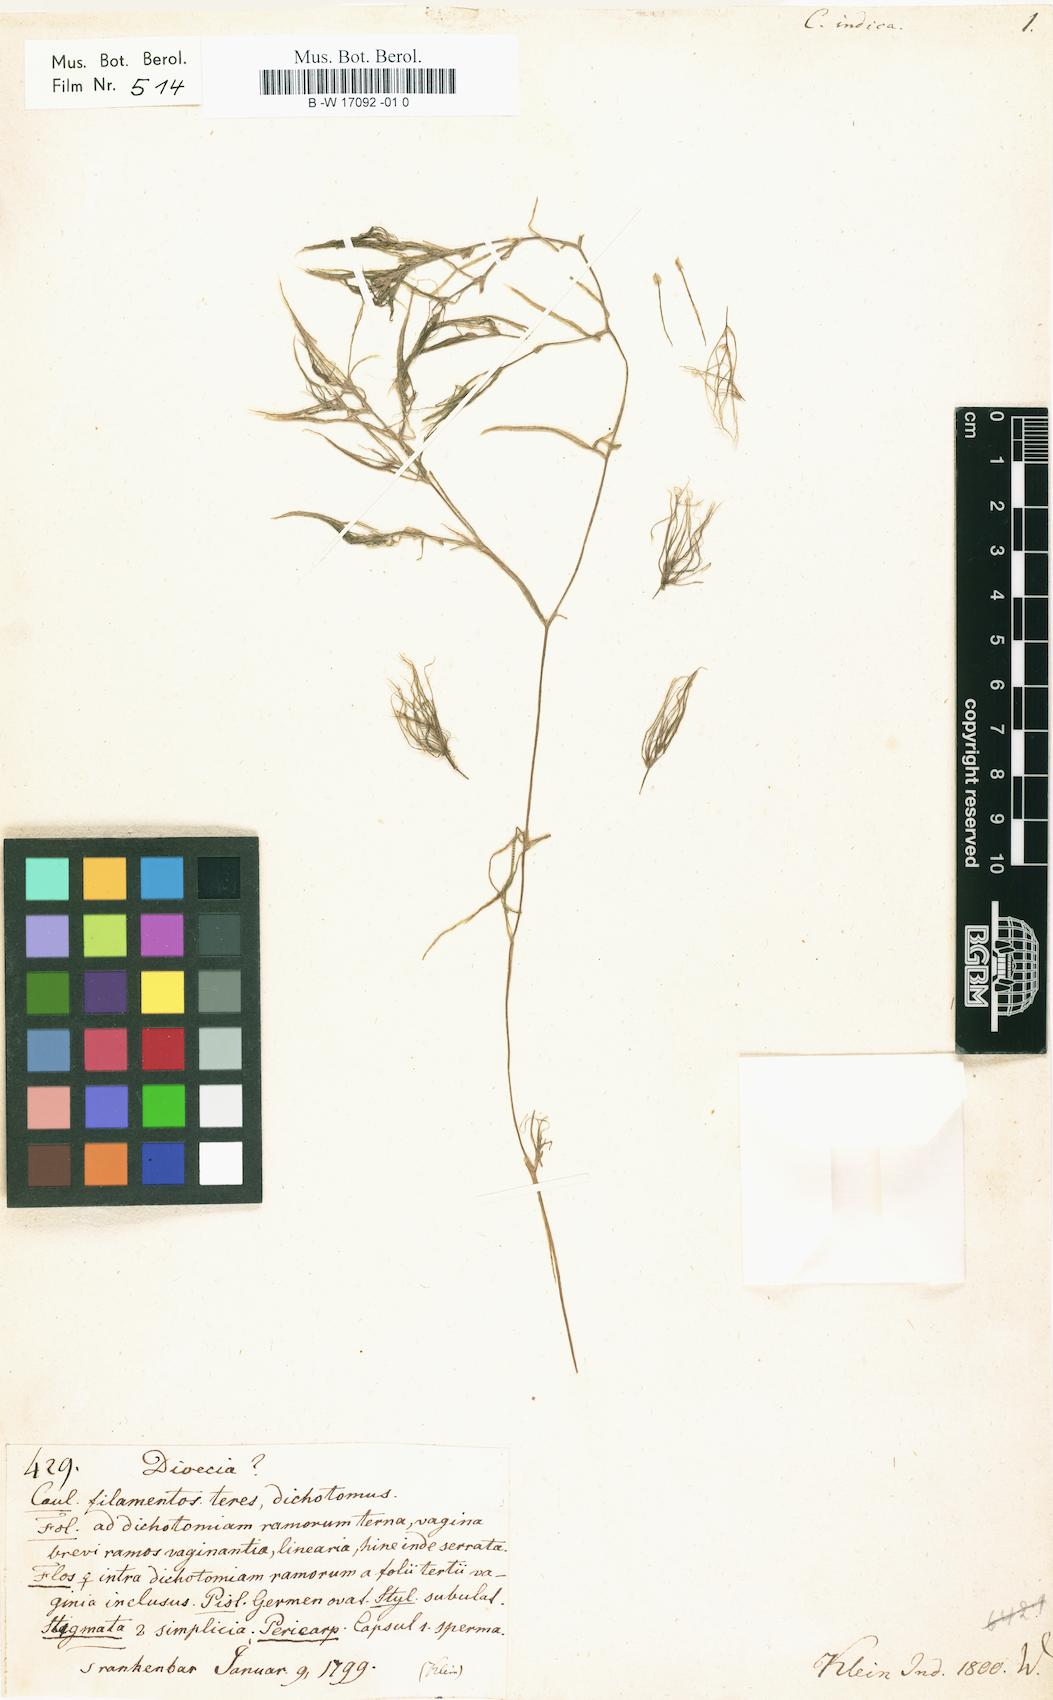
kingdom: Plantae
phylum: Tracheophyta
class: Liliopsida
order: Alismatales
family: Hydrocharitaceae
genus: Najas
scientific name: Najas indica
